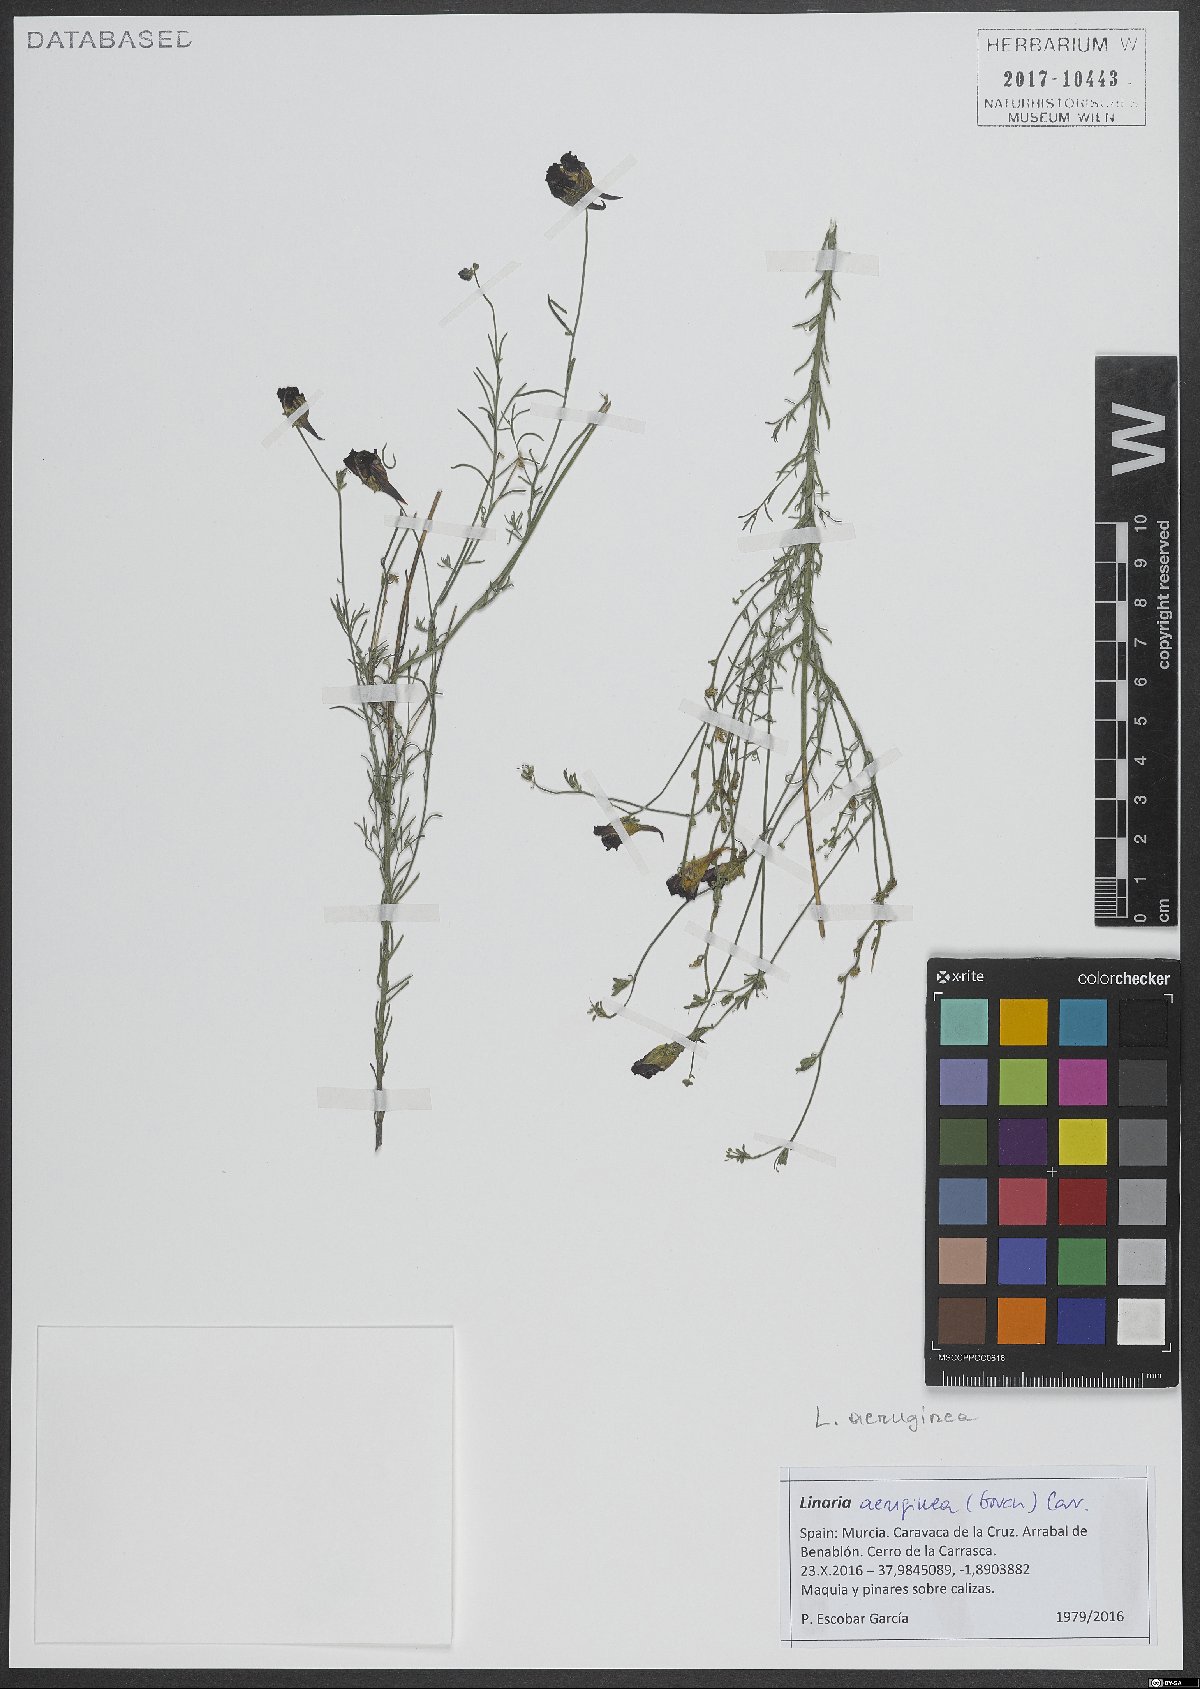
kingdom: Plantae
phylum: Tracheophyta
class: Magnoliopsida
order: Lamiales
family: Plantaginaceae
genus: Linaria
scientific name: Linaria aeruginea
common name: Roadside toadflax
